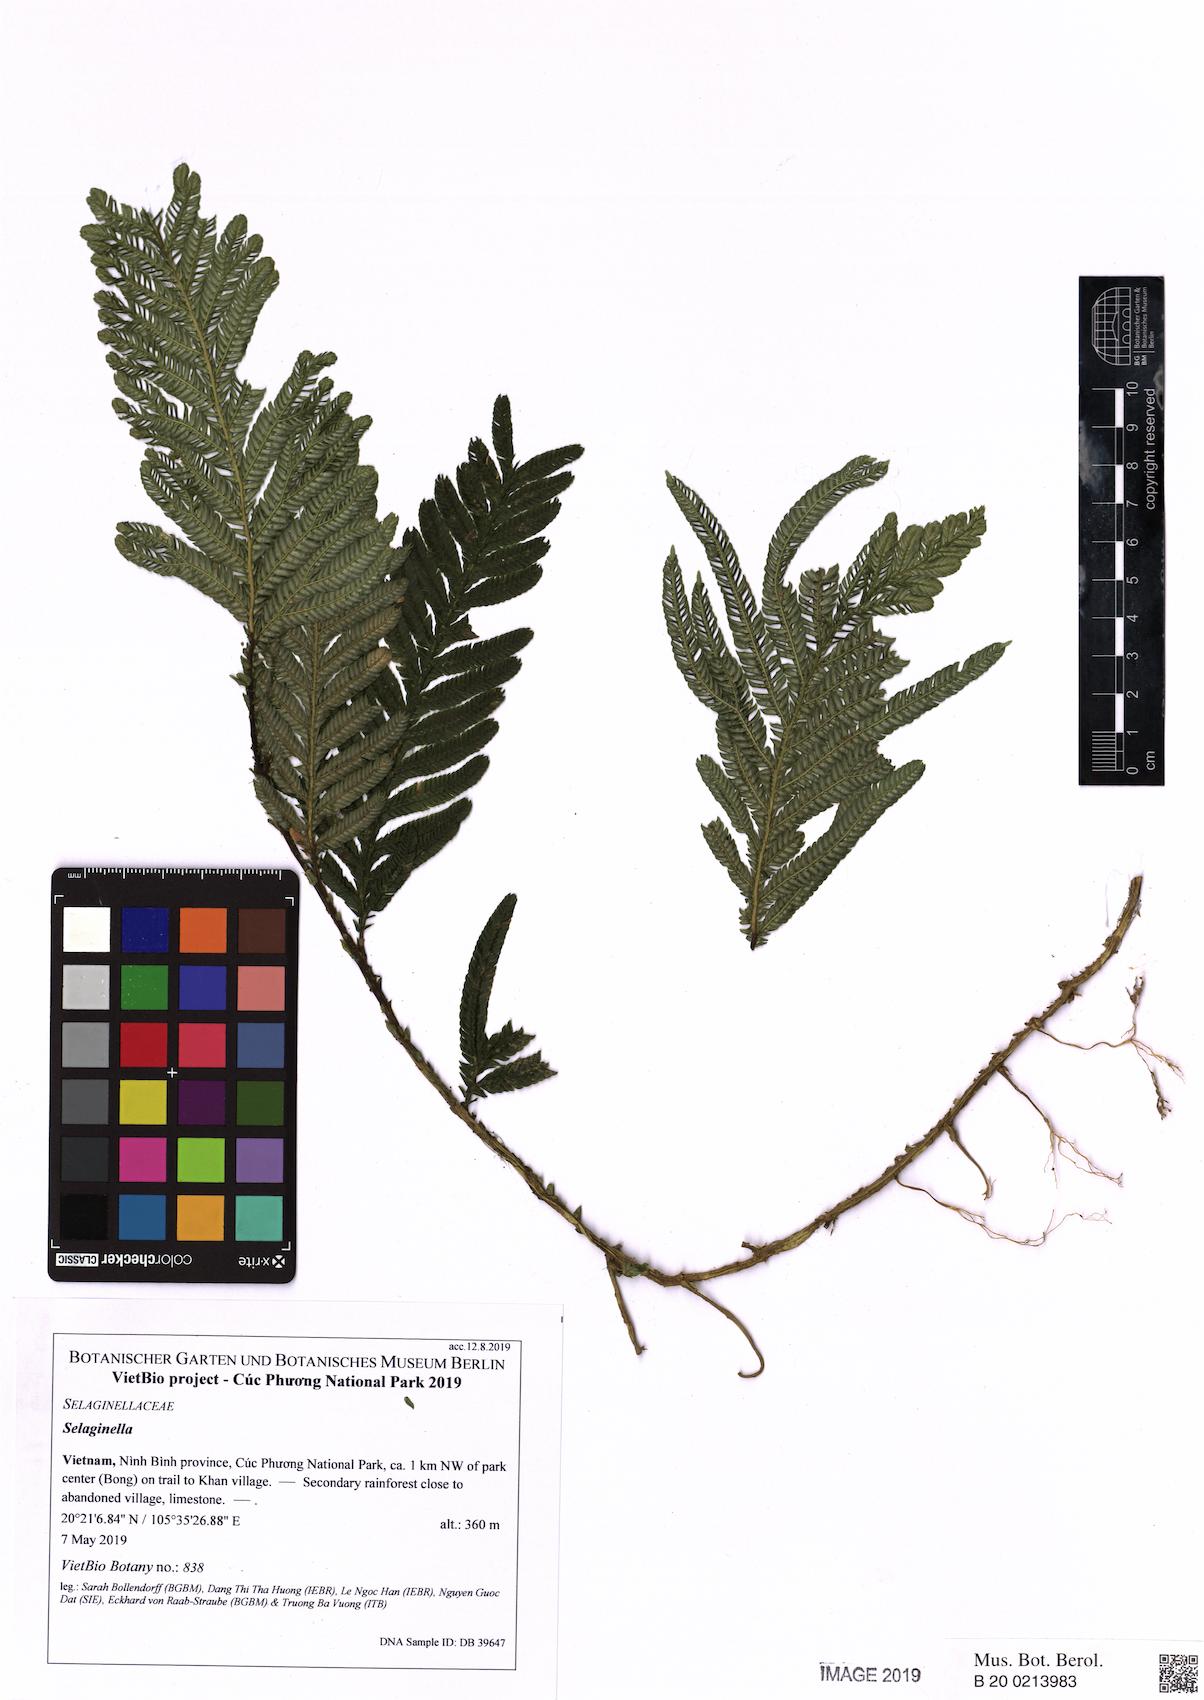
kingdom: Plantae
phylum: Tracheophyta
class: Lycopodiopsida
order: Selaginellales
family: Selaginellaceae
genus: Selaginella
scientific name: Selaginella
